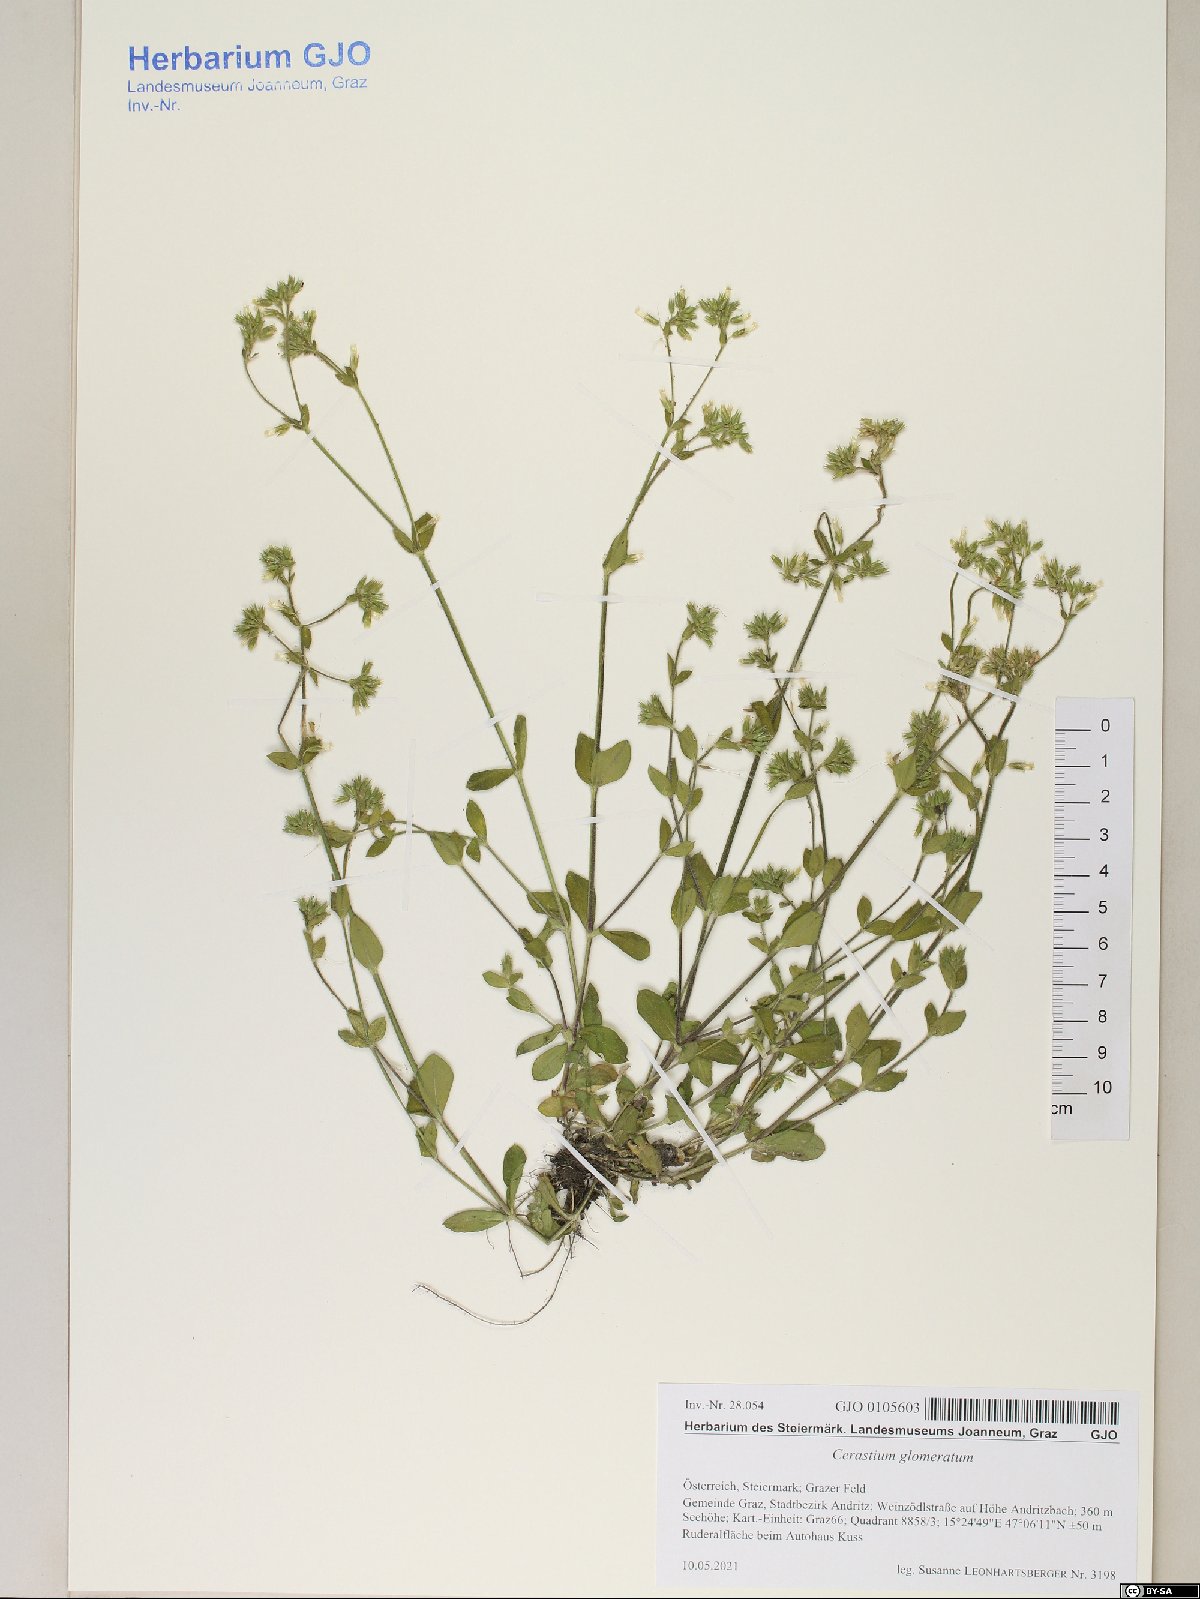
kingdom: Plantae
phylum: Tracheophyta
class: Magnoliopsida
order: Caryophyllales
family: Caryophyllaceae
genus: Cerastium
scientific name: Cerastium glomeratum
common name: Sticky chickweed
